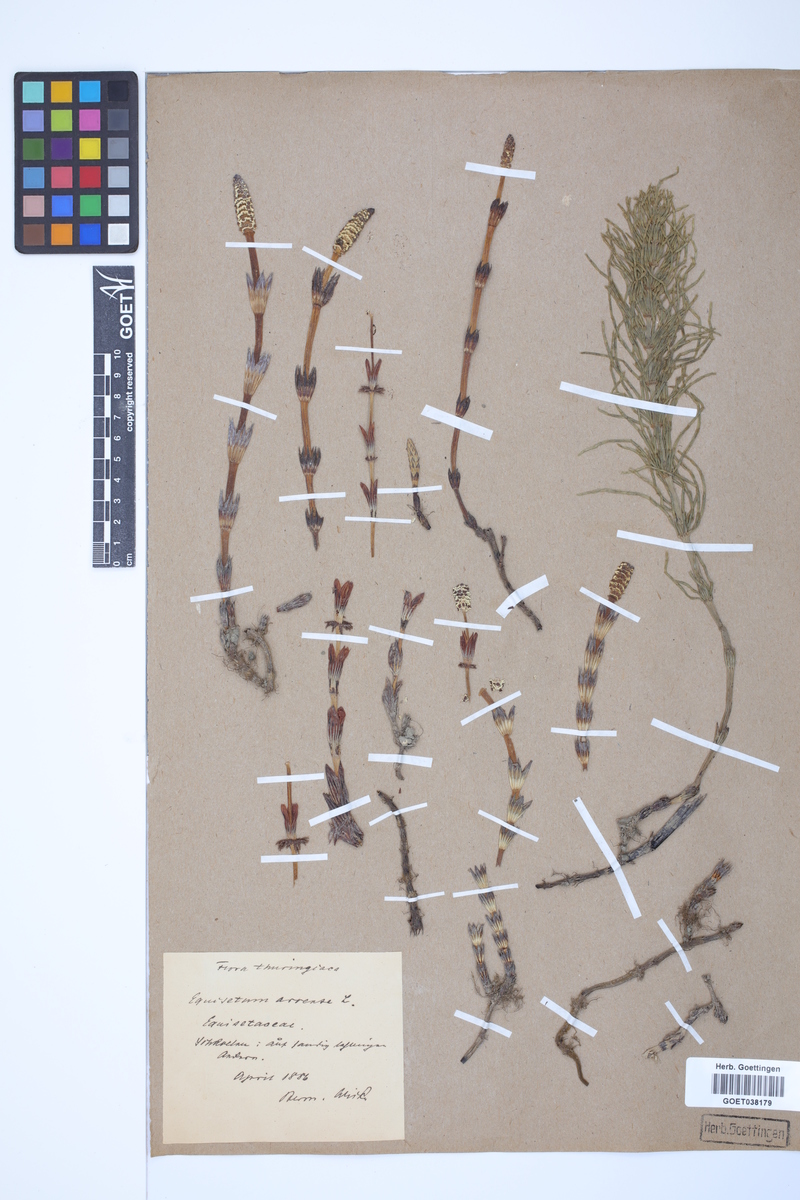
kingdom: Plantae
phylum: Tracheophyta
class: Polypodiopsida
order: Equisetales
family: Equisetaceae
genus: Equisetum
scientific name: Equisetum arvense
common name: Field horsetail
